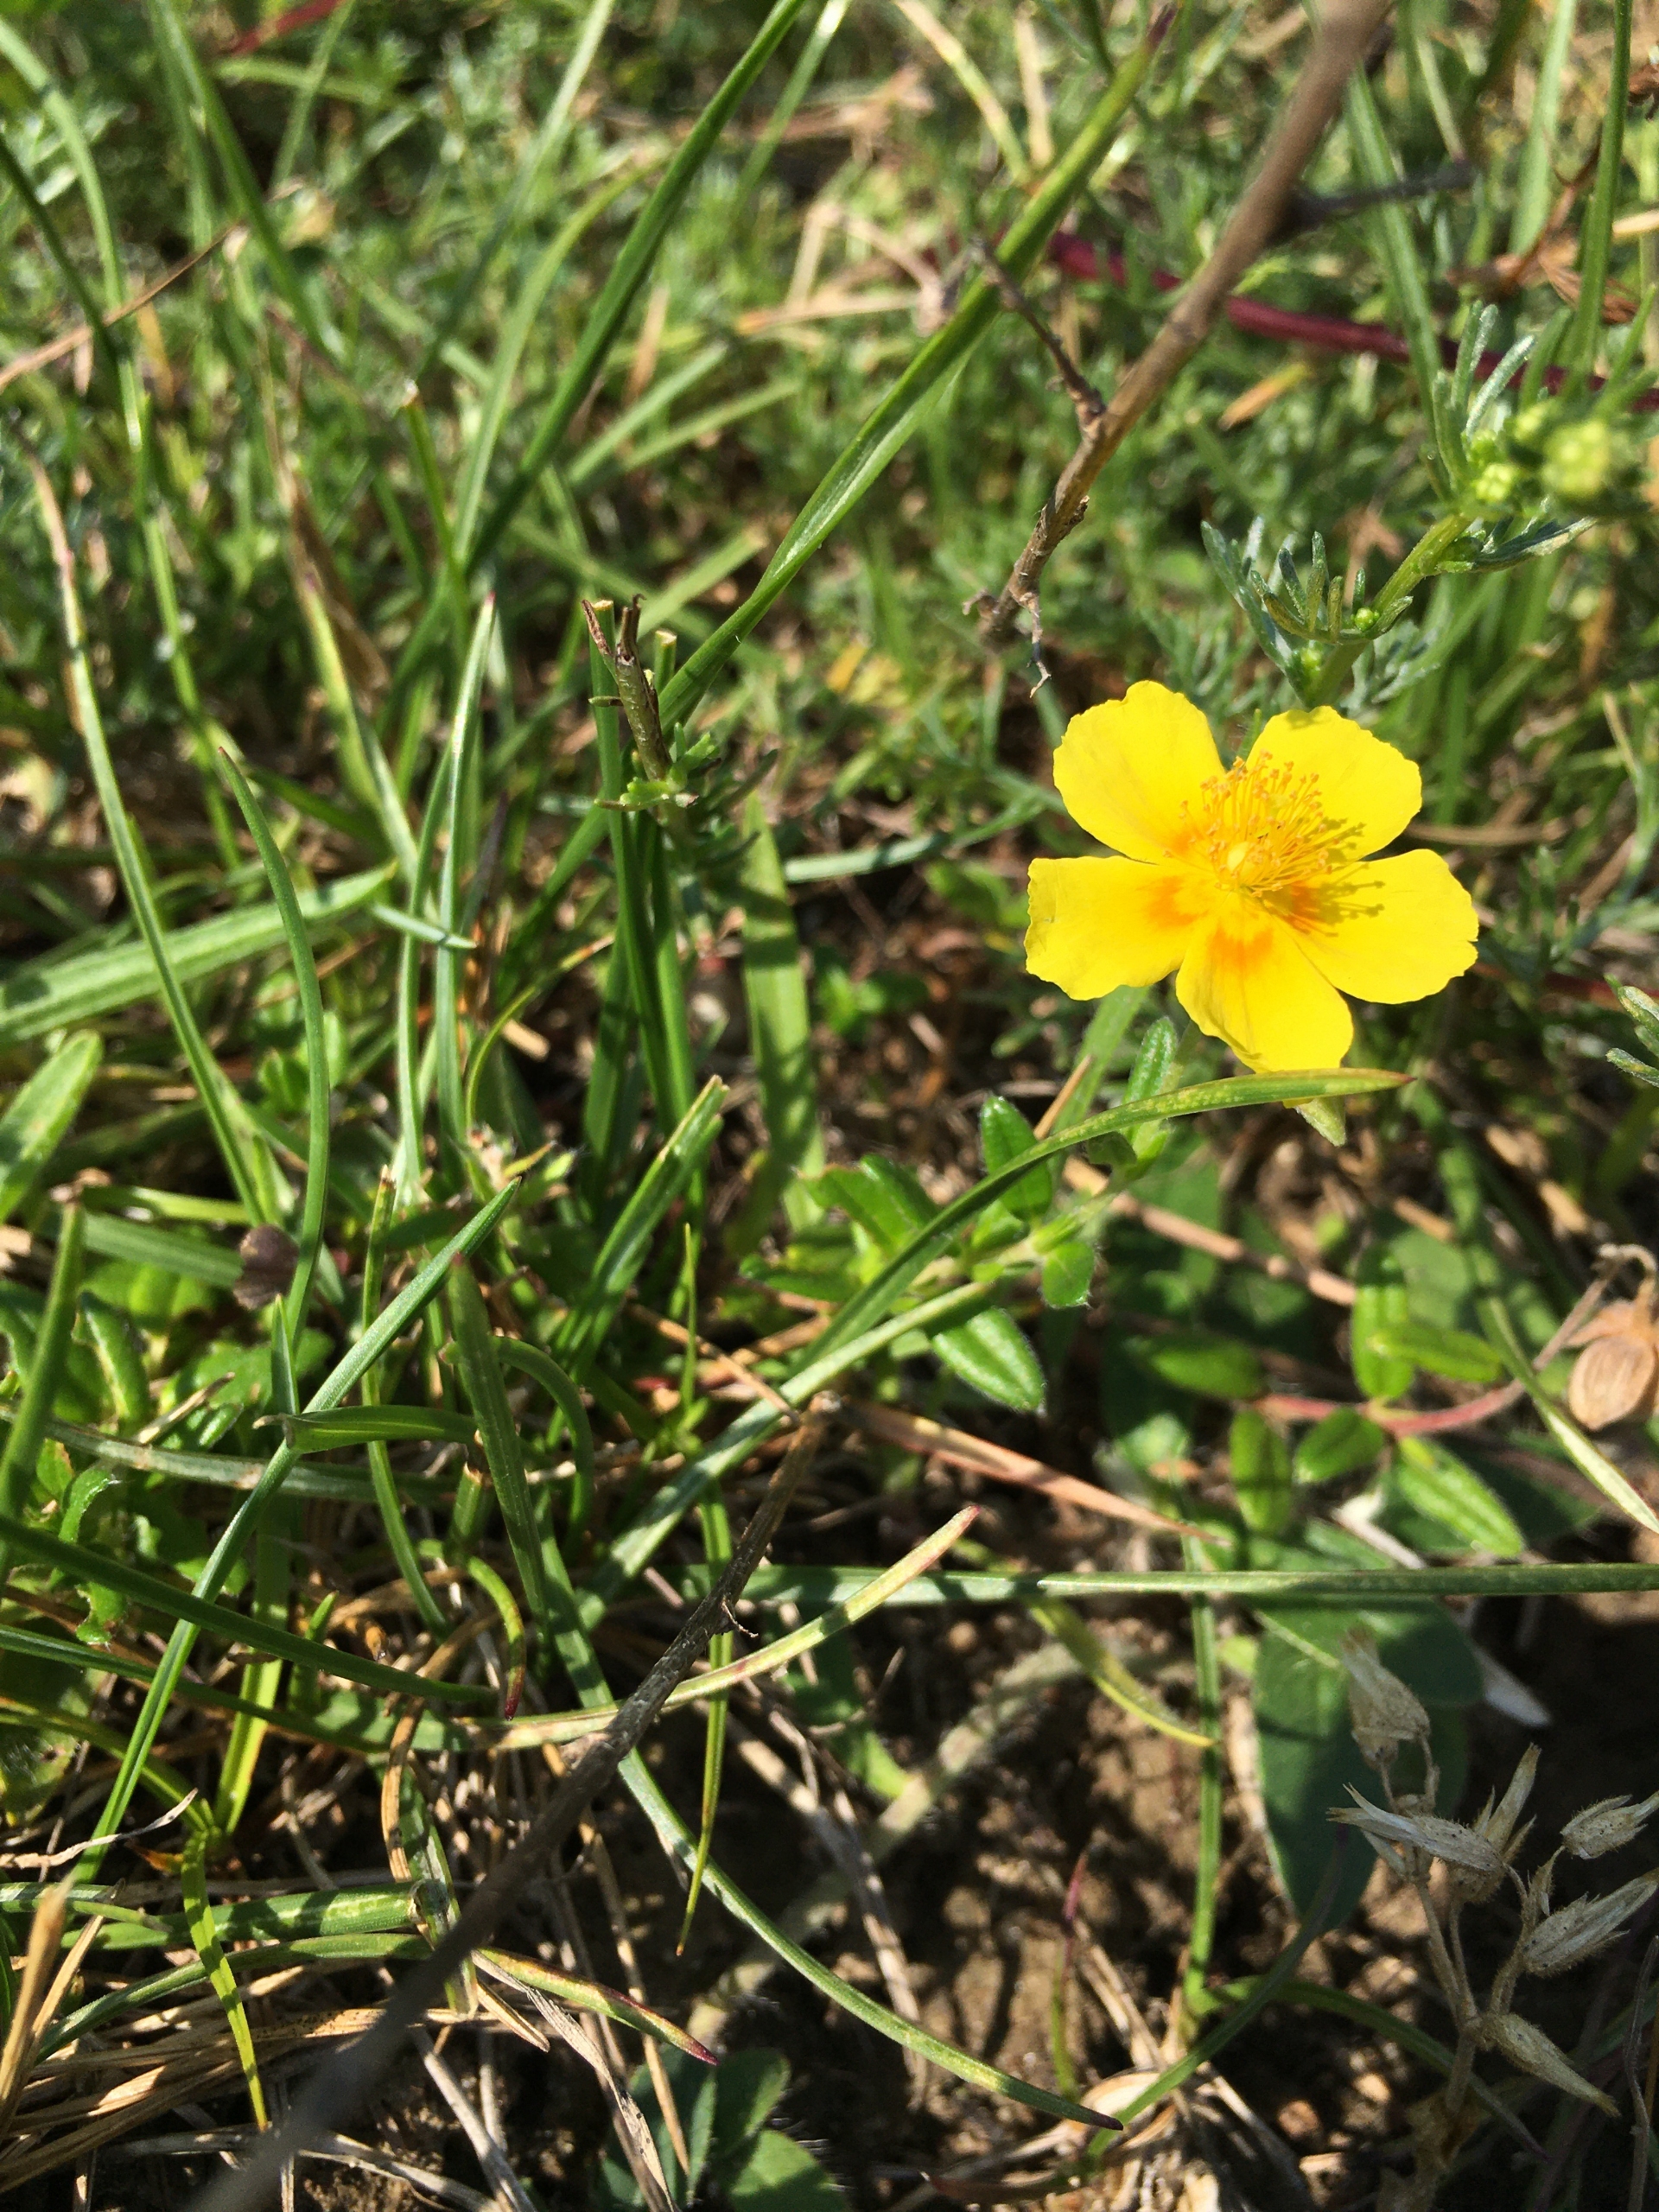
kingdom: Plantae
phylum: Tracheophyta
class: Magnoliopsida
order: Malvales
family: Cistaceae
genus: Helianthemum
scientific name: Helianthemum nummularium
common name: Bakke-soløje
